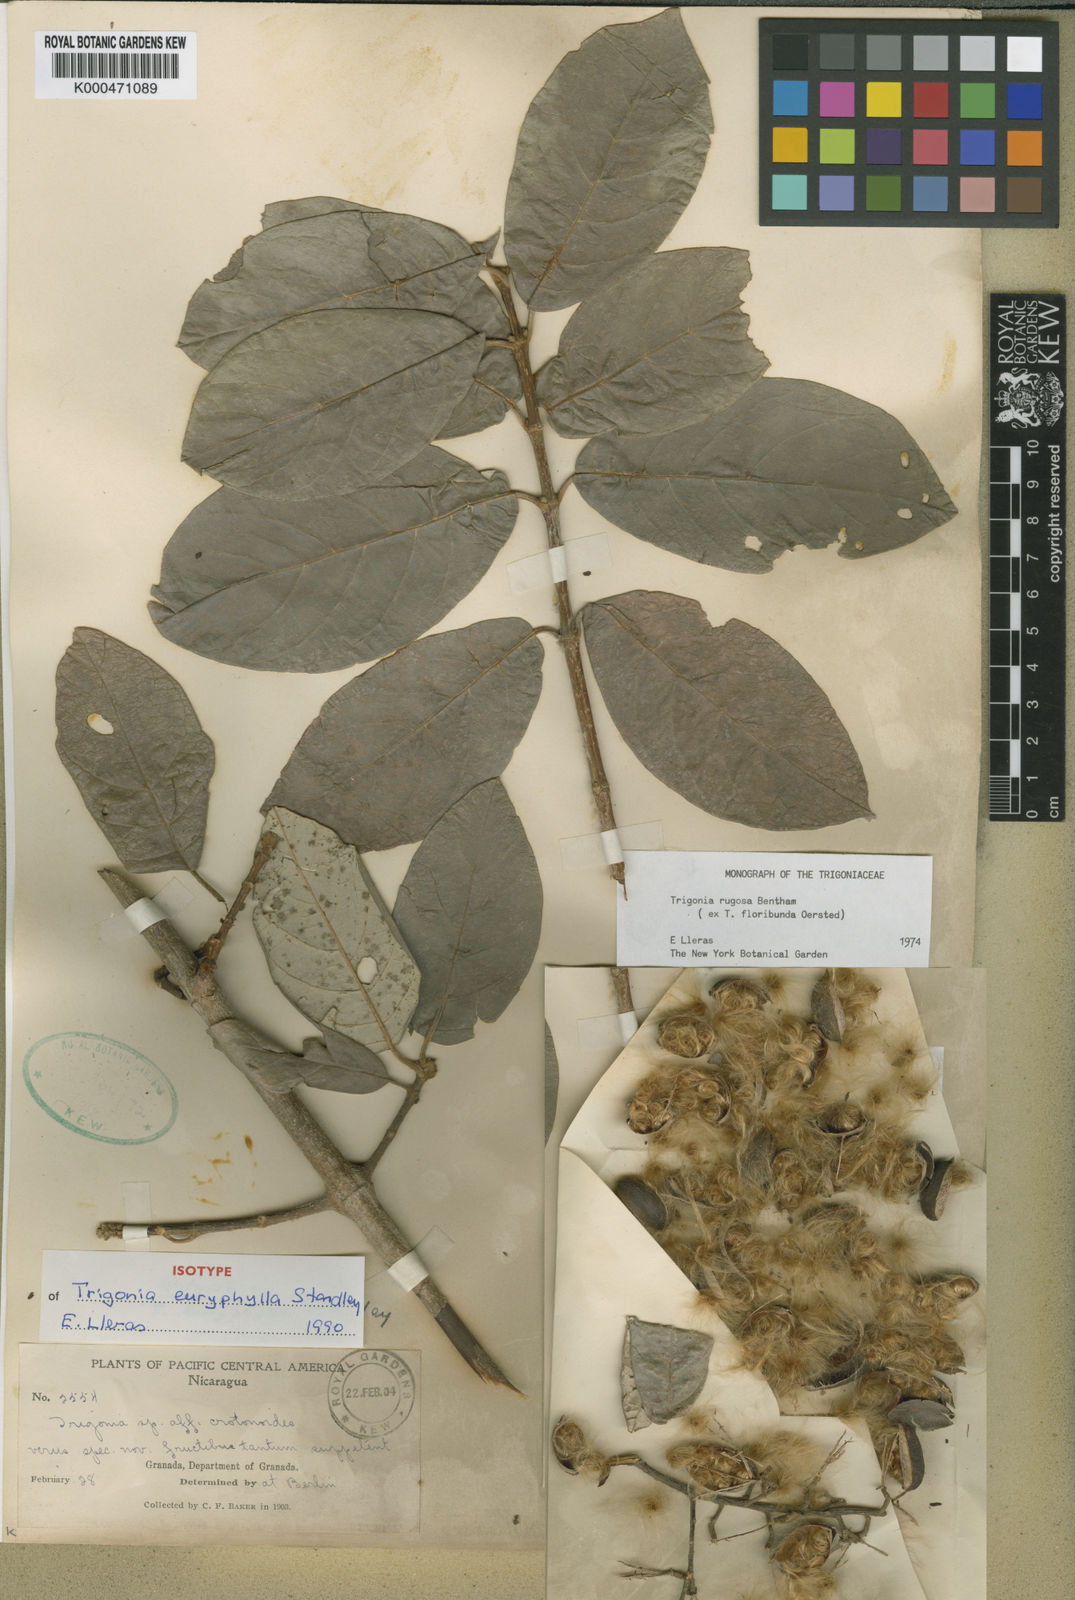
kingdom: Plantae
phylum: Tracheophyta
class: Magnoliopsida
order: Malpighiales
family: Trigoniaceae
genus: Trigonia
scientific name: Trigonia rugosa
